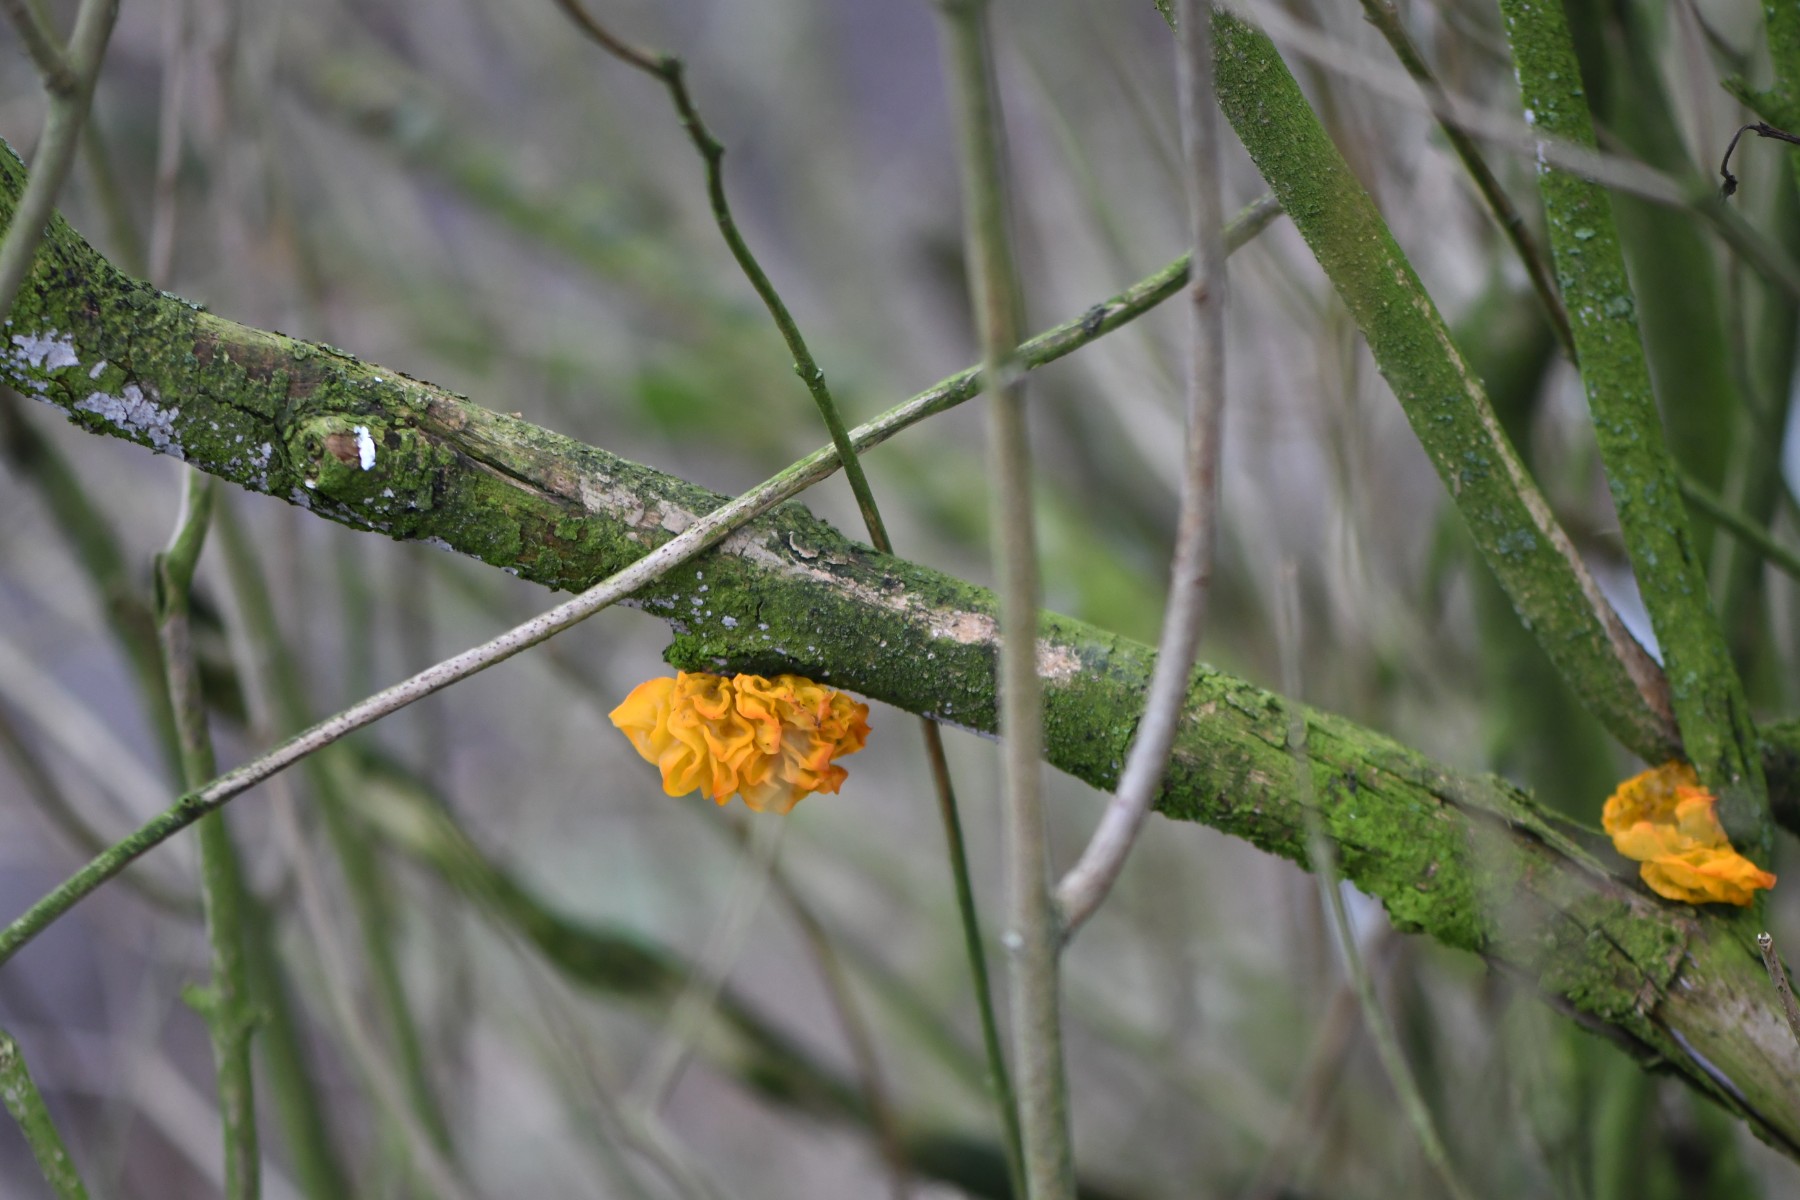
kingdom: Fungi
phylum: Basidiomycota
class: Tremellomycetes
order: Tremellales
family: Tremellaceae
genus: Tremella
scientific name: Tremella mesenterica
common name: gul bævresvamp
